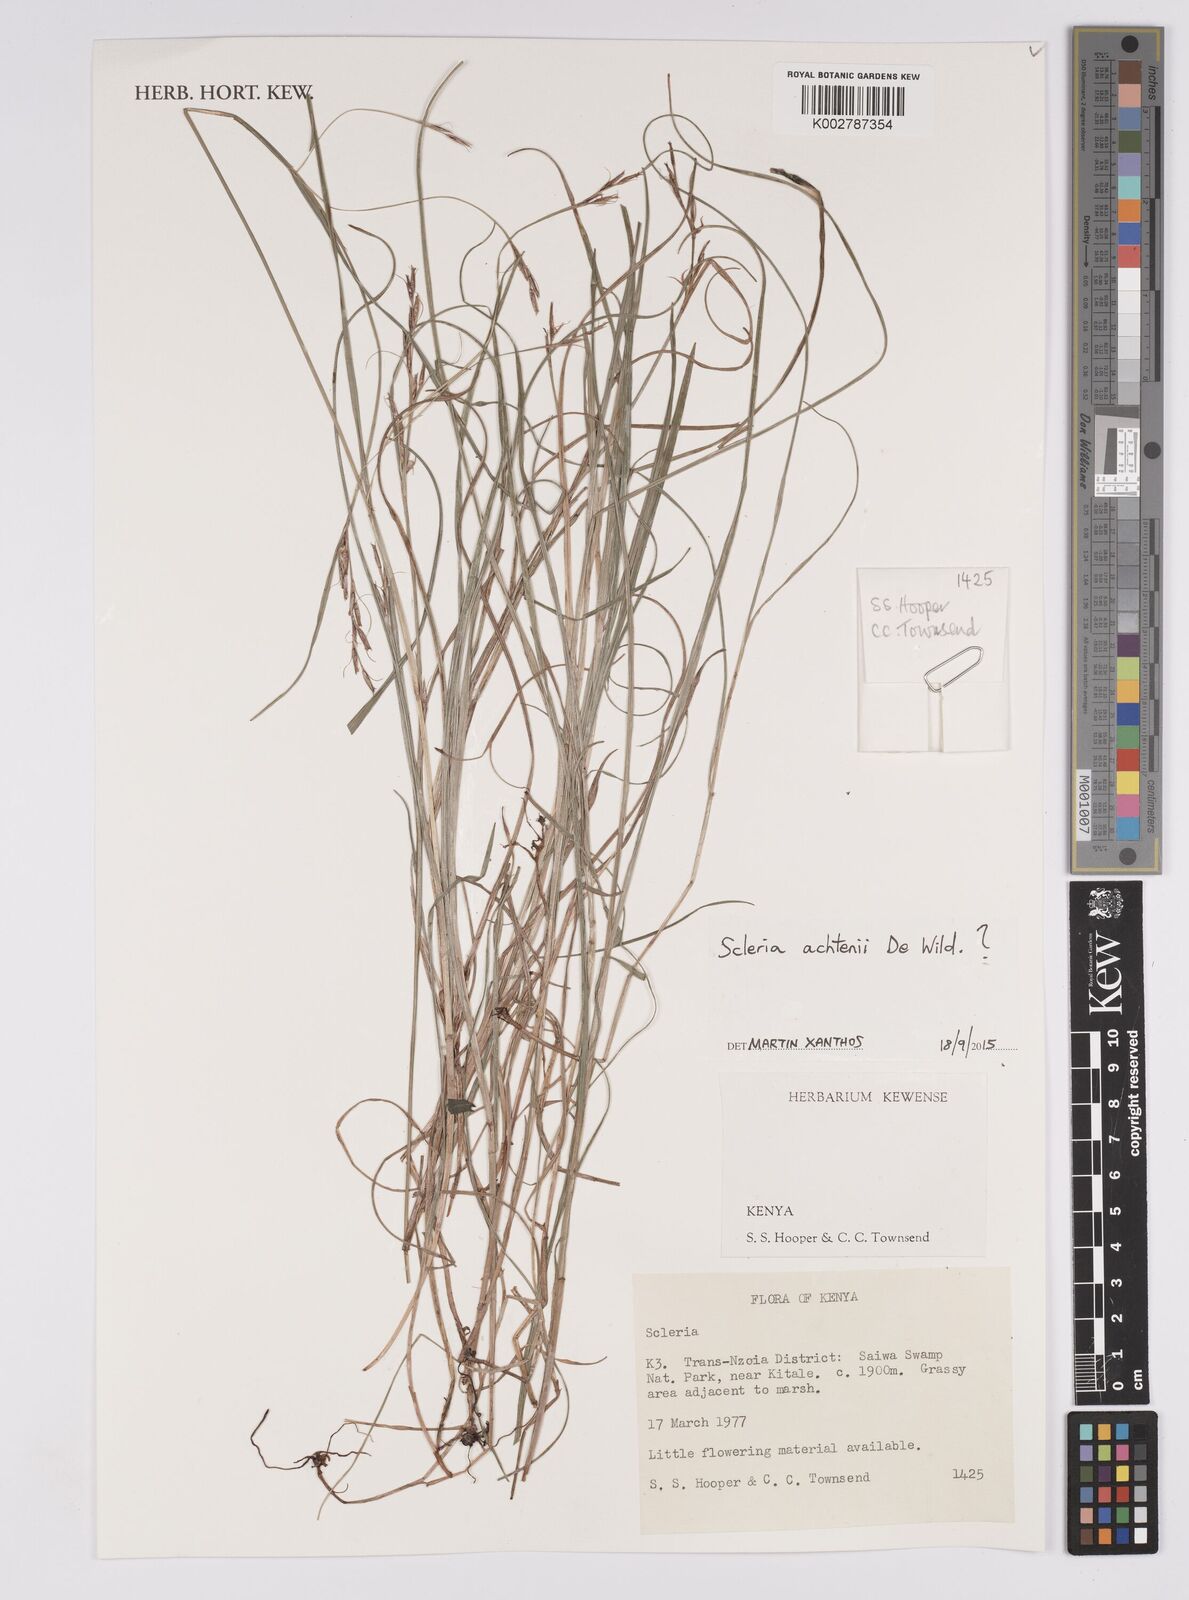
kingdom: Plantae
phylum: Tracheophyta
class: Liliopsida
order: Poales
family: Cyperaceae
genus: Scleria
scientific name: Scleria achtenii
